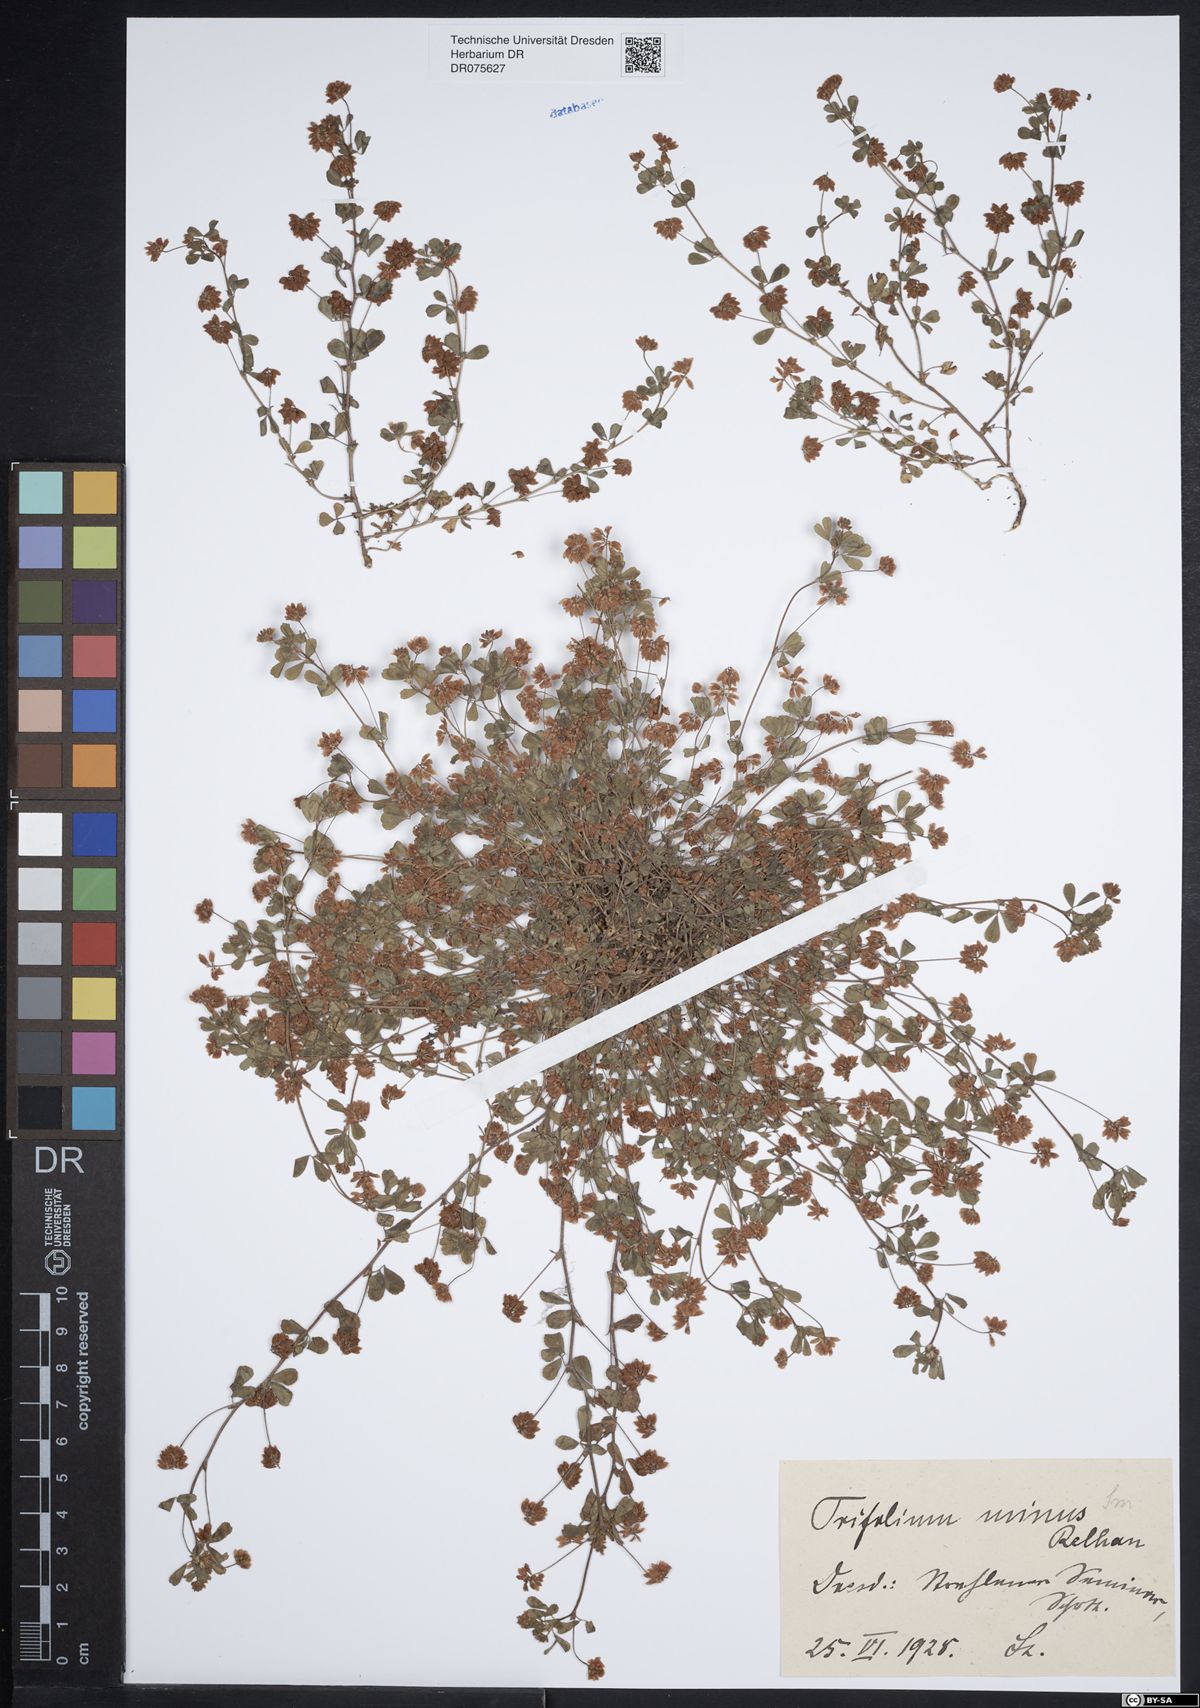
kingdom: Plantae
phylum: Tracheophyta
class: Magnoliopsida
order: Fabales
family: Fabaceae
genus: Trifolium
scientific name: Trifolium dubium
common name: Suckling clover
